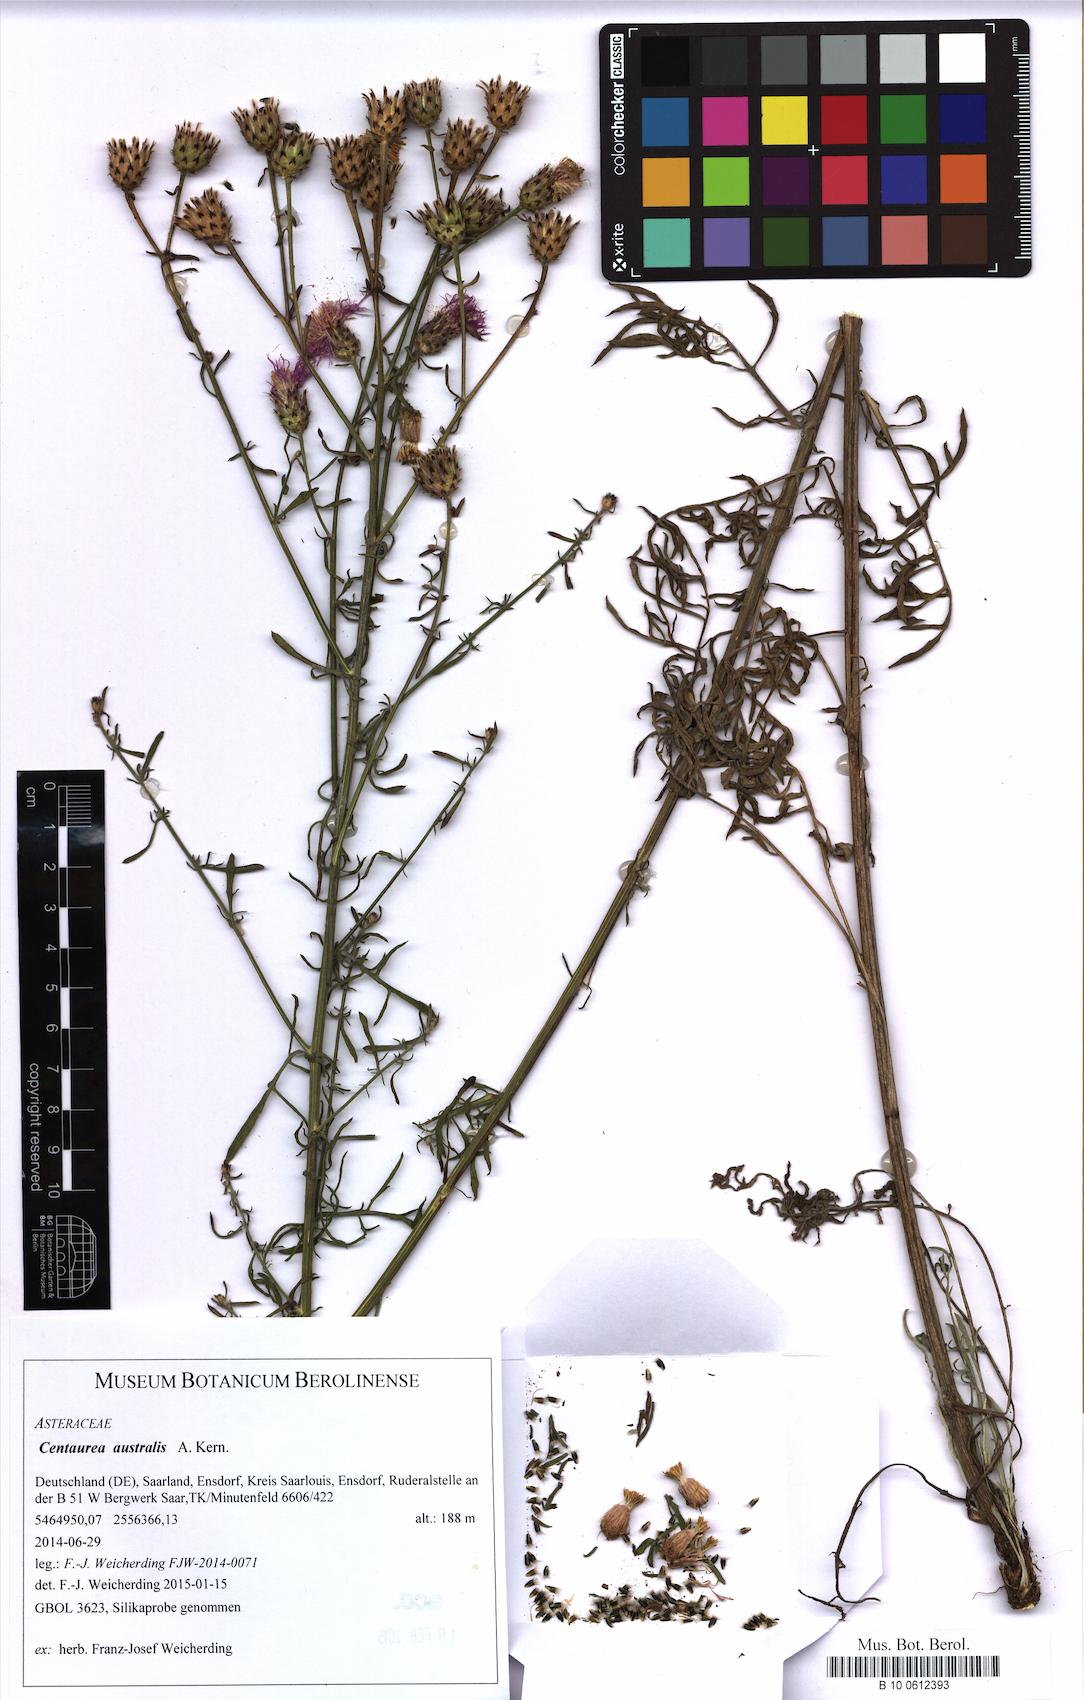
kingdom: Plantae
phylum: Tracheophyta
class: Magnoliopsida
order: Asterales
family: Asteraceae
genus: Centaurea
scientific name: Centaurea australis
